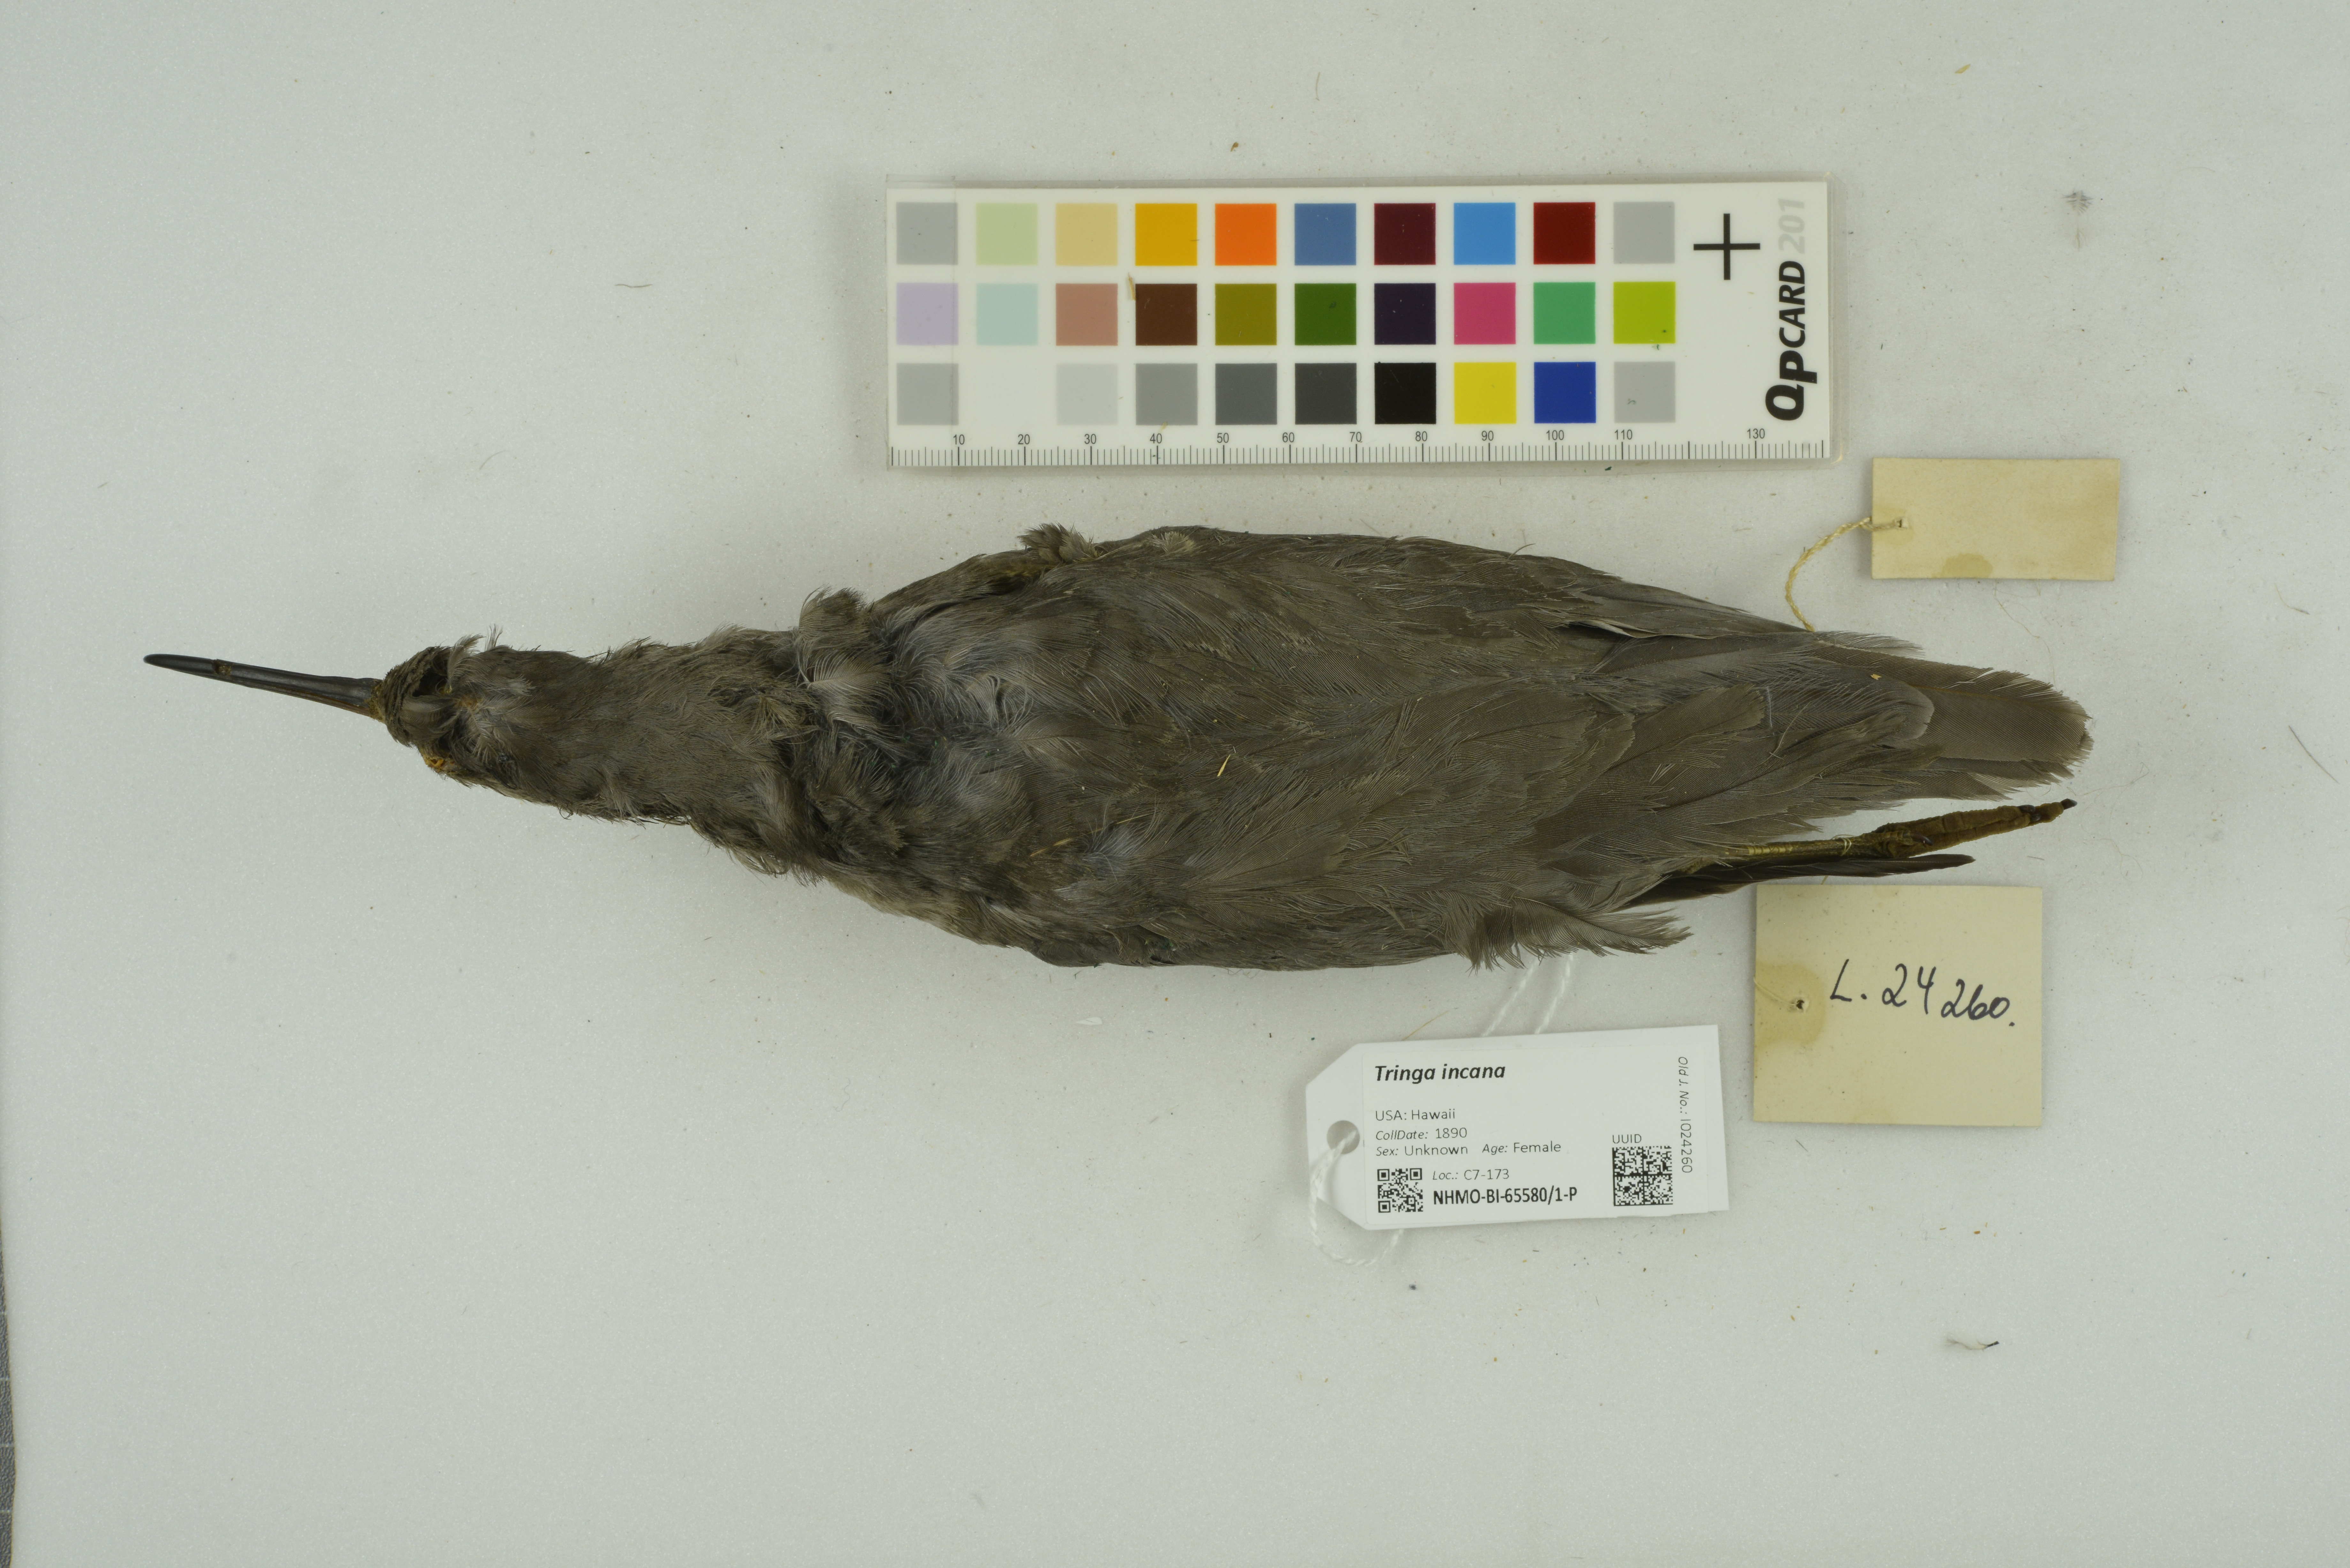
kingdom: Animalia
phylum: Chordata
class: Aves
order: Charadriiformes
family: Scolopacidae
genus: Tringa
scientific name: Tringa incana
